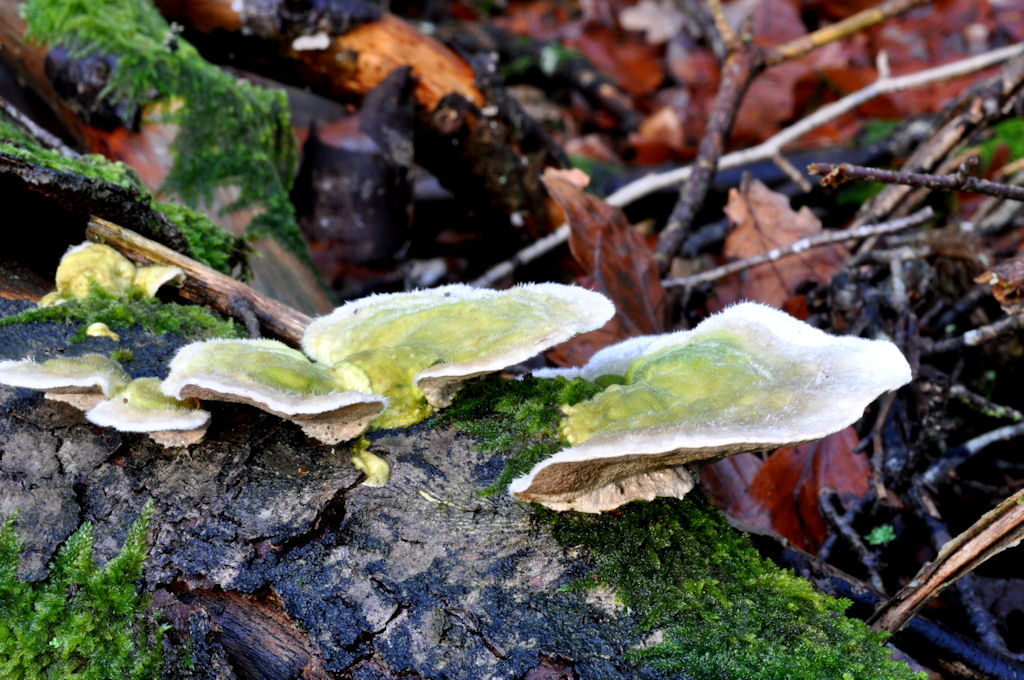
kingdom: Fungi
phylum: Basidiomycota
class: Agaricomycetes
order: Polyporales
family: Polyporaceae
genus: Trametes
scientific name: Trametes hirsuta
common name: håret læderporesvamp
